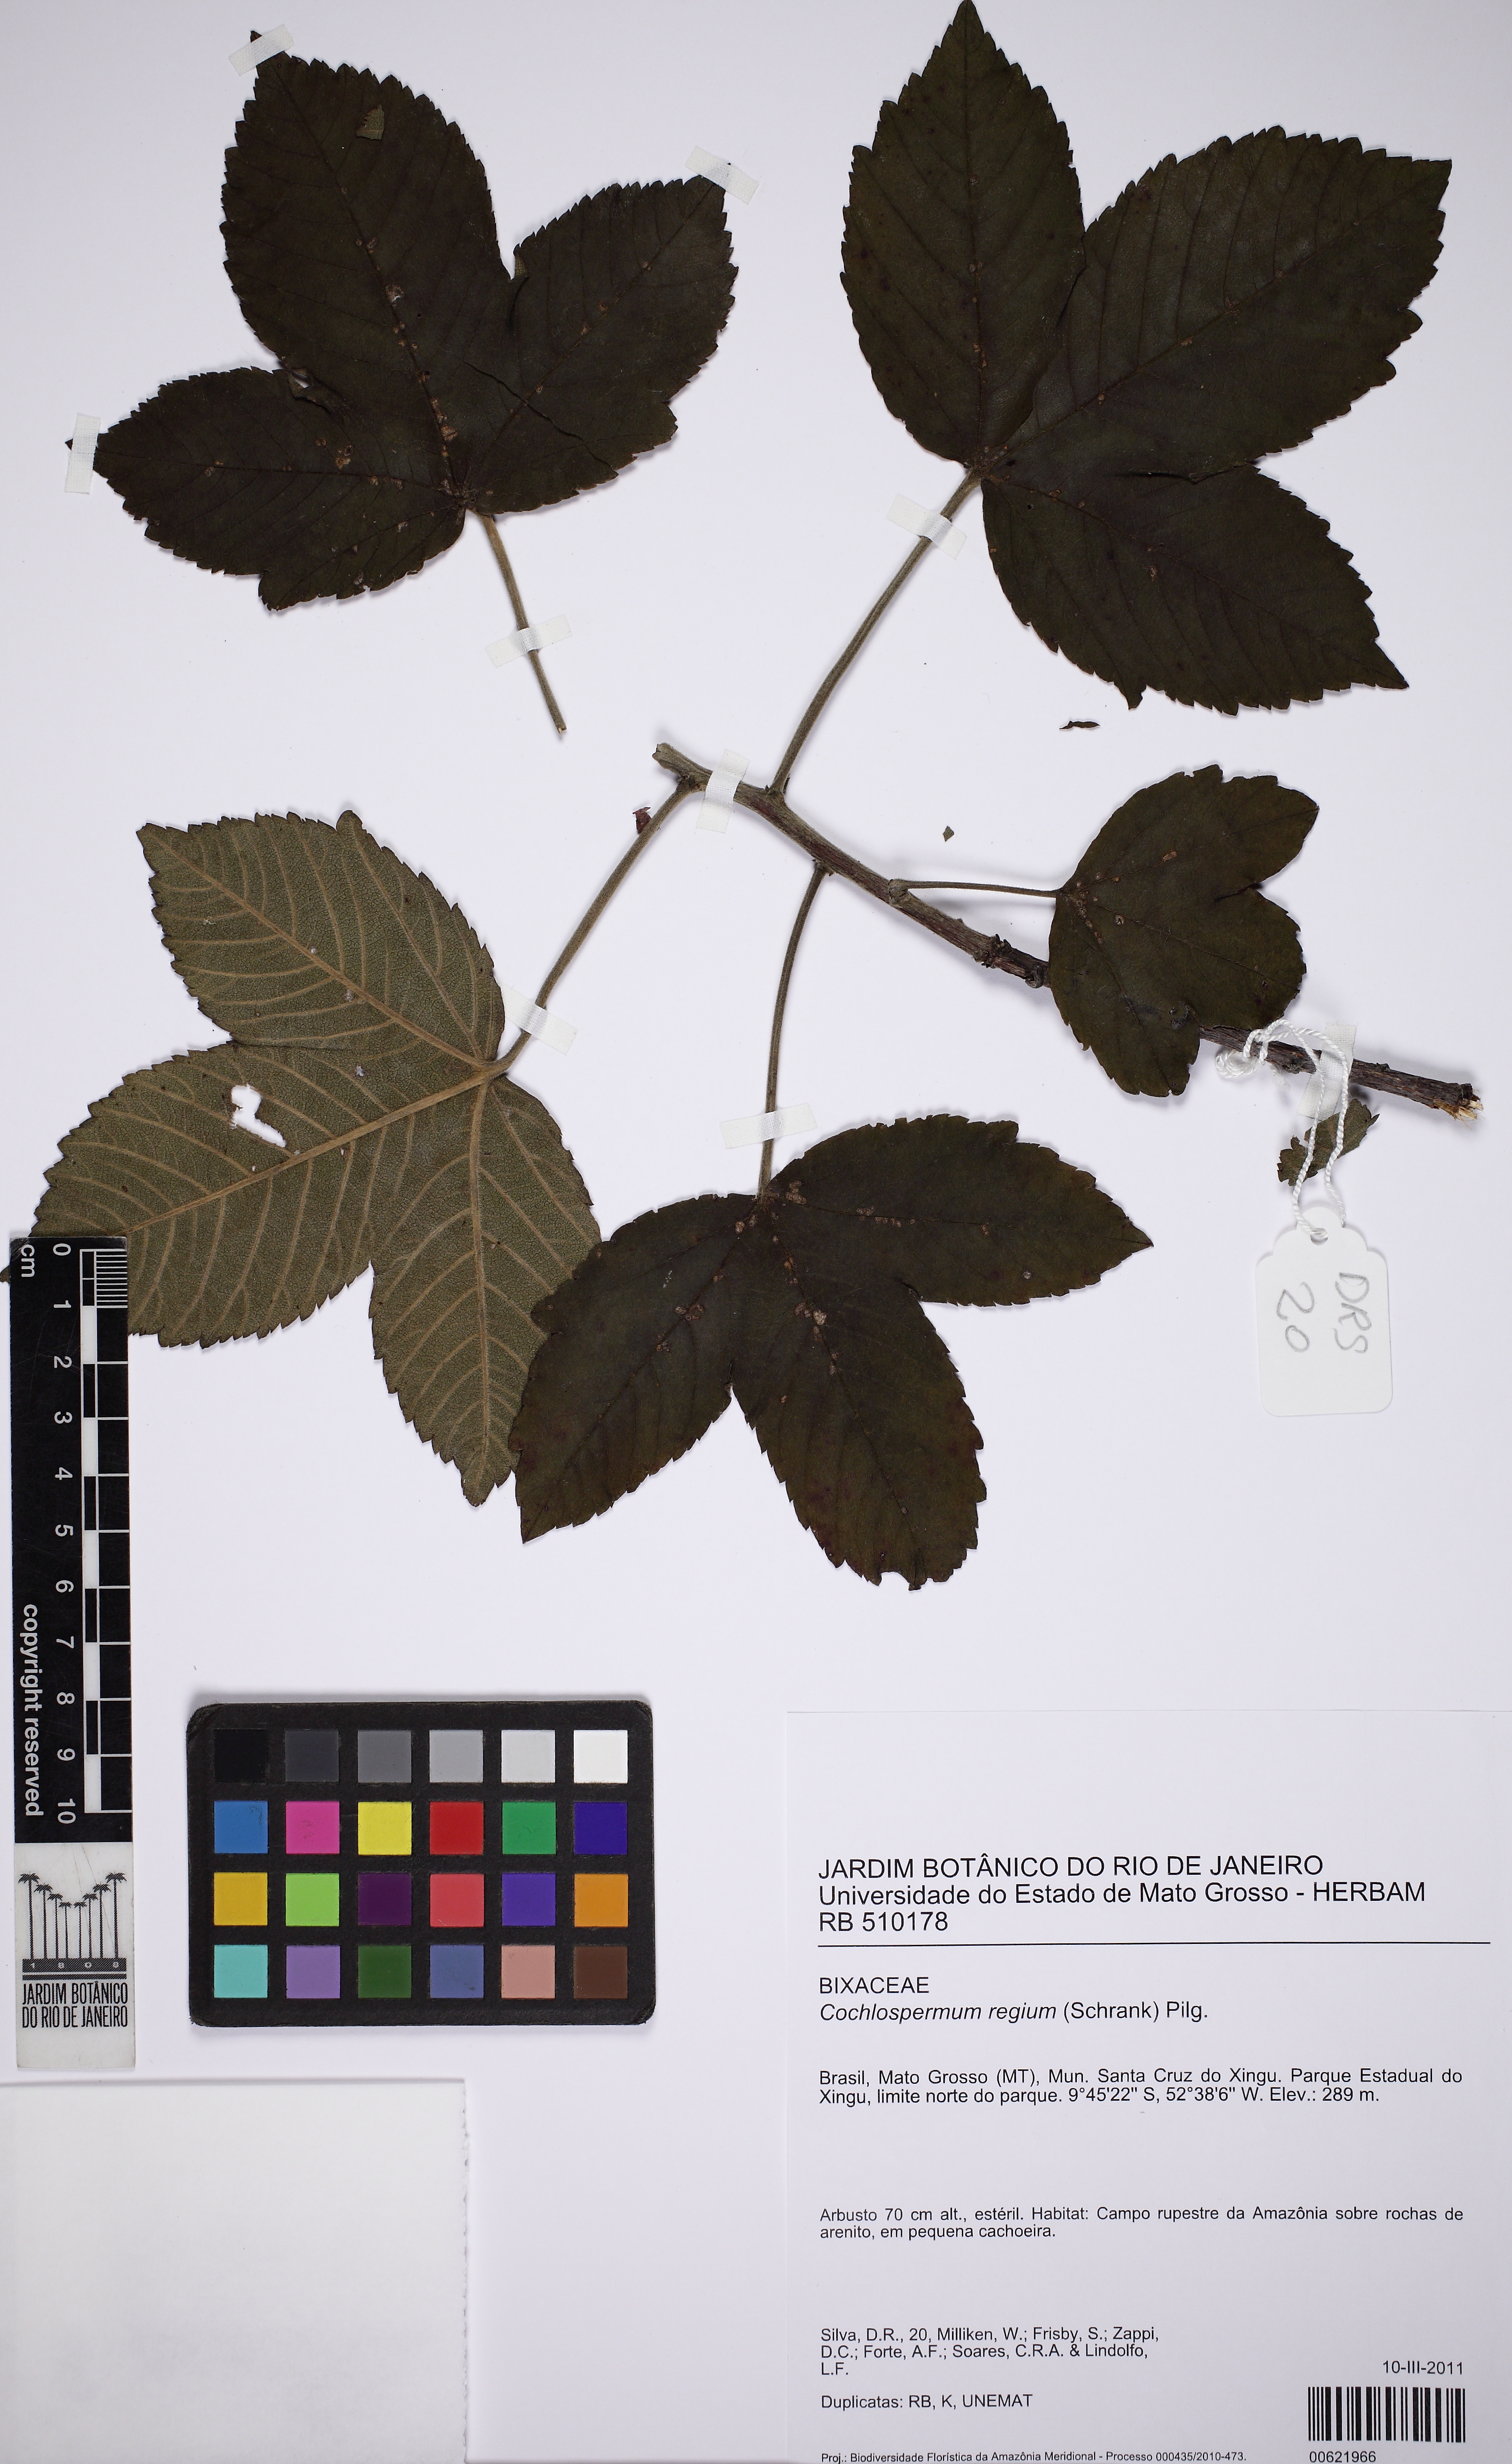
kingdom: Plantae
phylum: Tracheophyta
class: Magnoliopsida
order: Malvales
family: Cochlospermaceae
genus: Cochlospermum
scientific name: Cochlospermum regium
